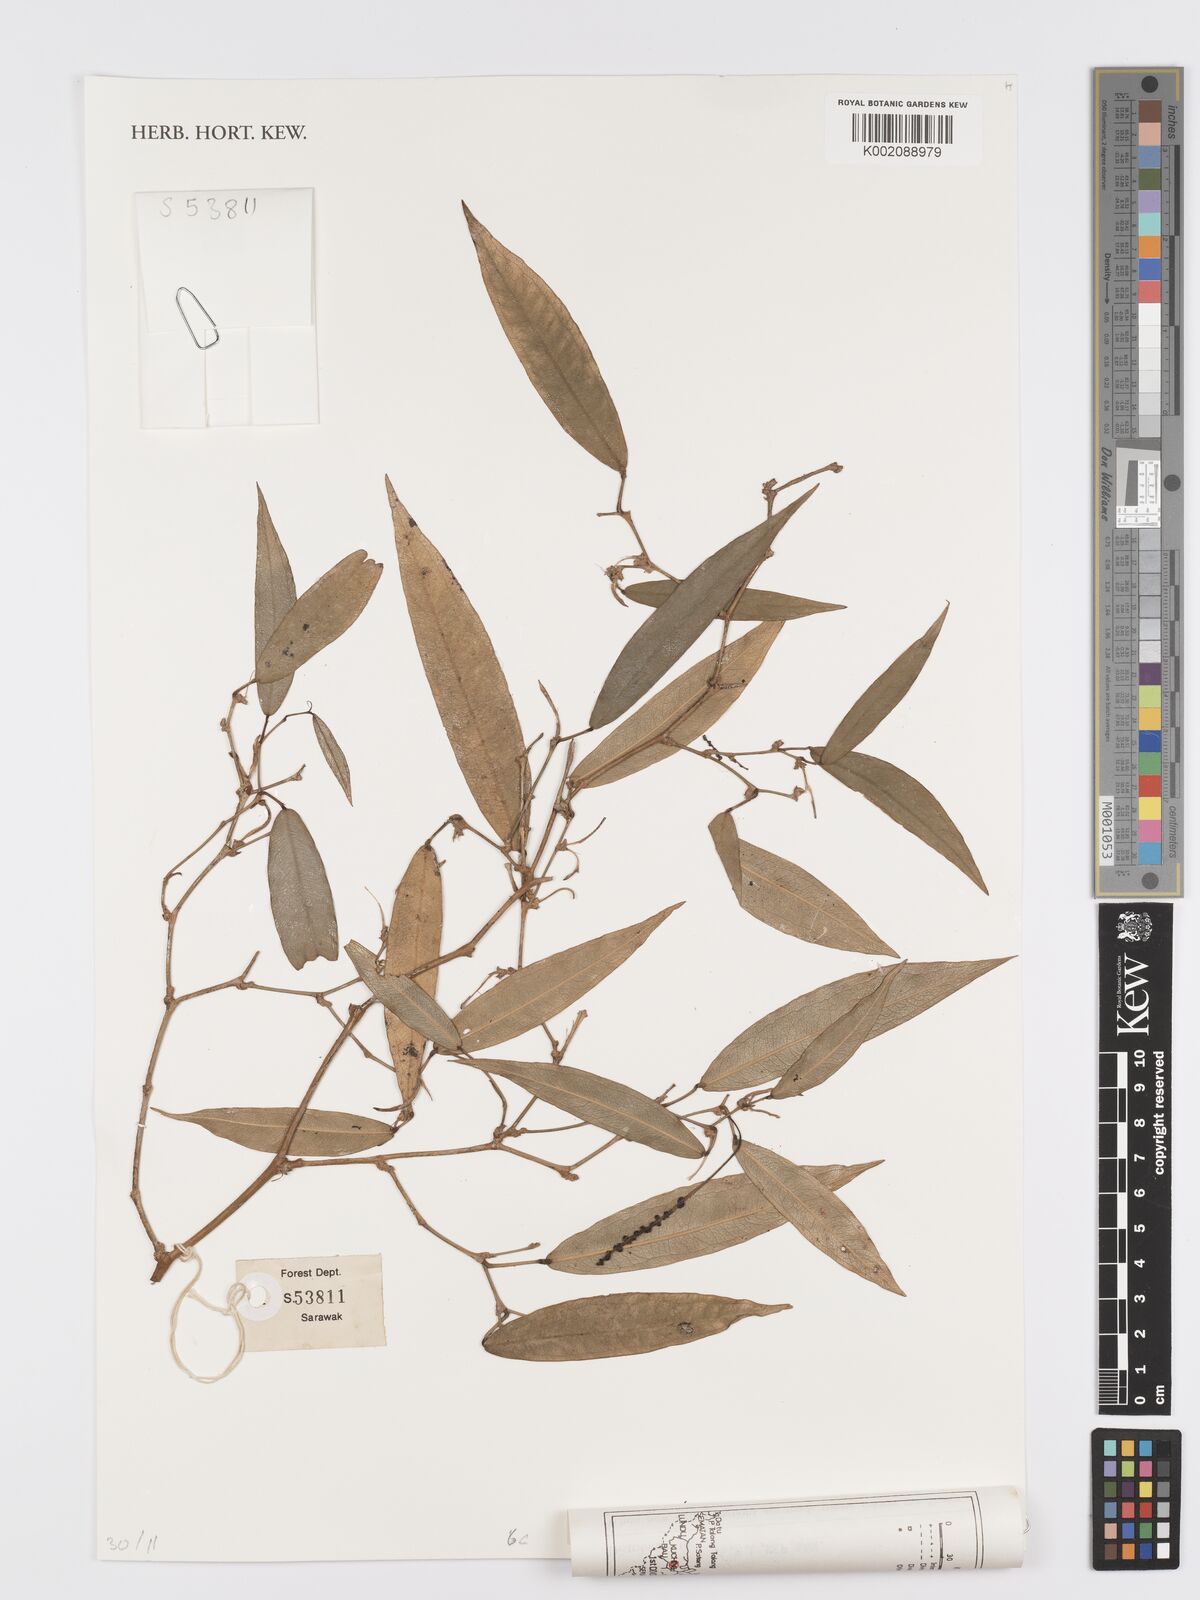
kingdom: Plantae
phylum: Tracheophyta
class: Liliopsida
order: Alismatales
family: Araceae
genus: Pothos
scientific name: Pothos
